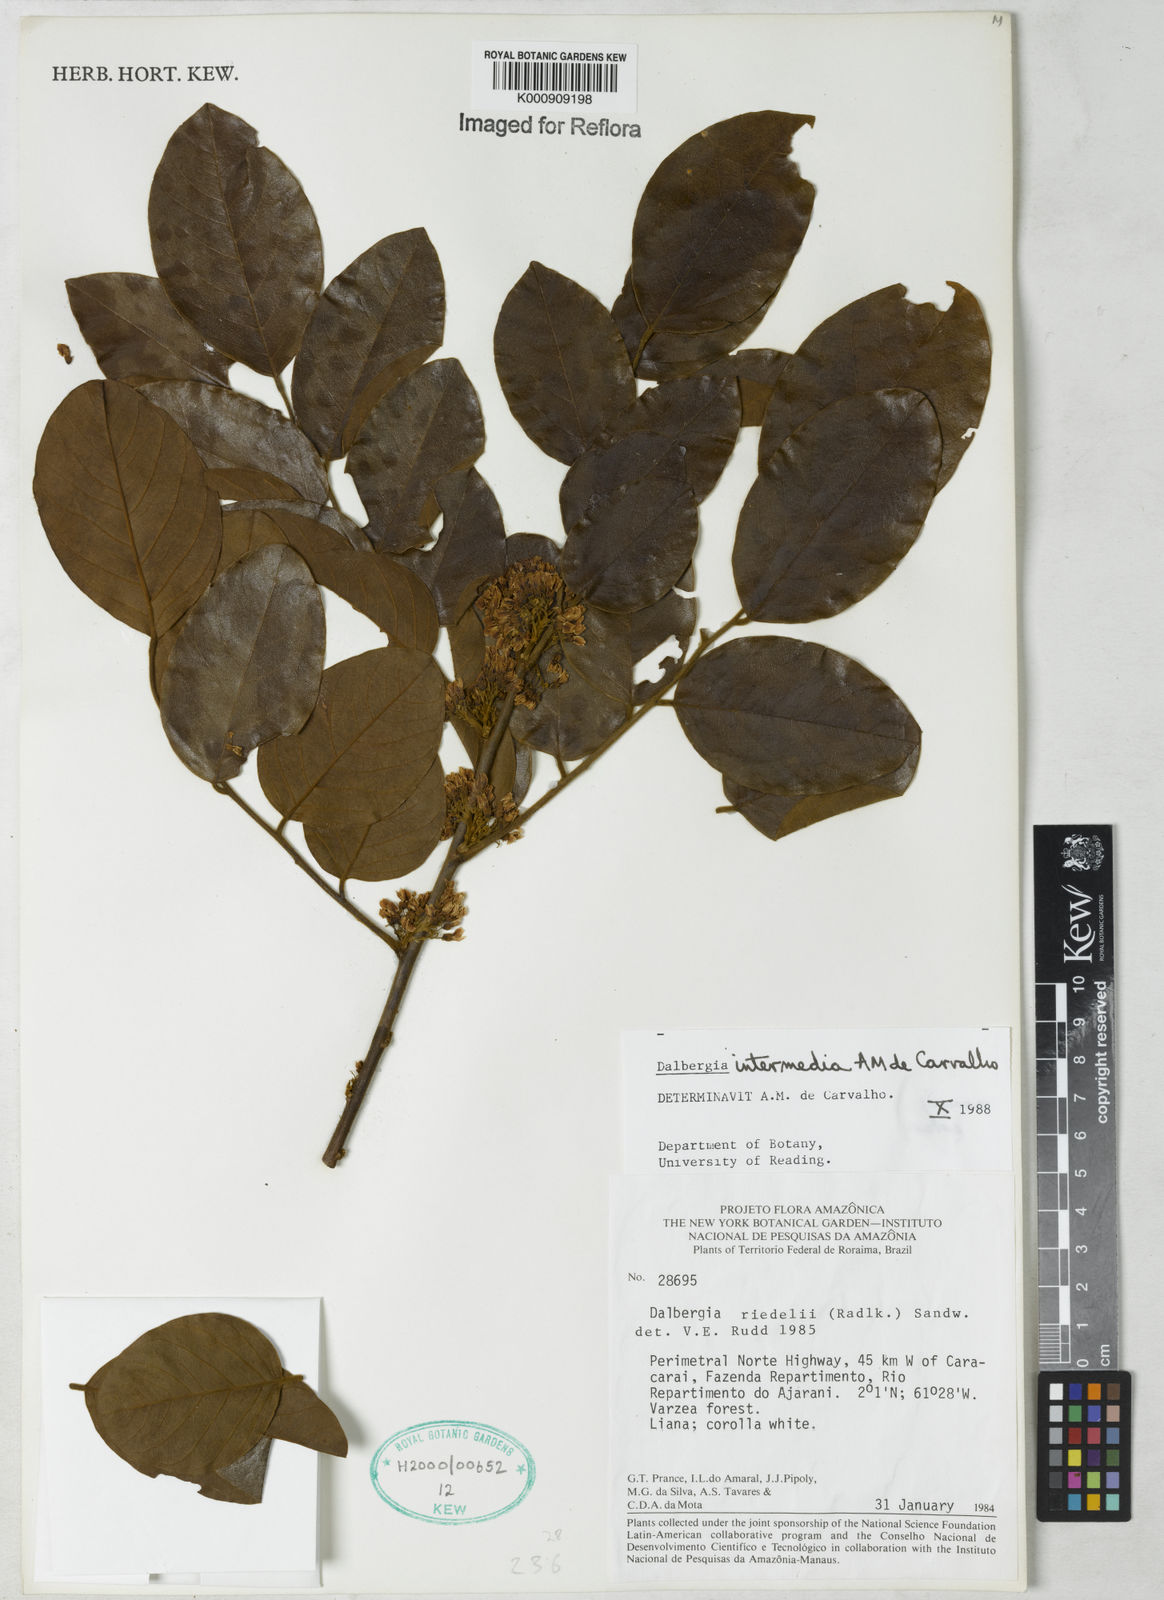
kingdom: Plantae
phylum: Tracheophyta
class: Magnoliopsida
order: Fabales
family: Fabaceae
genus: Dalbergia
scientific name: Dalbergia intermedia
